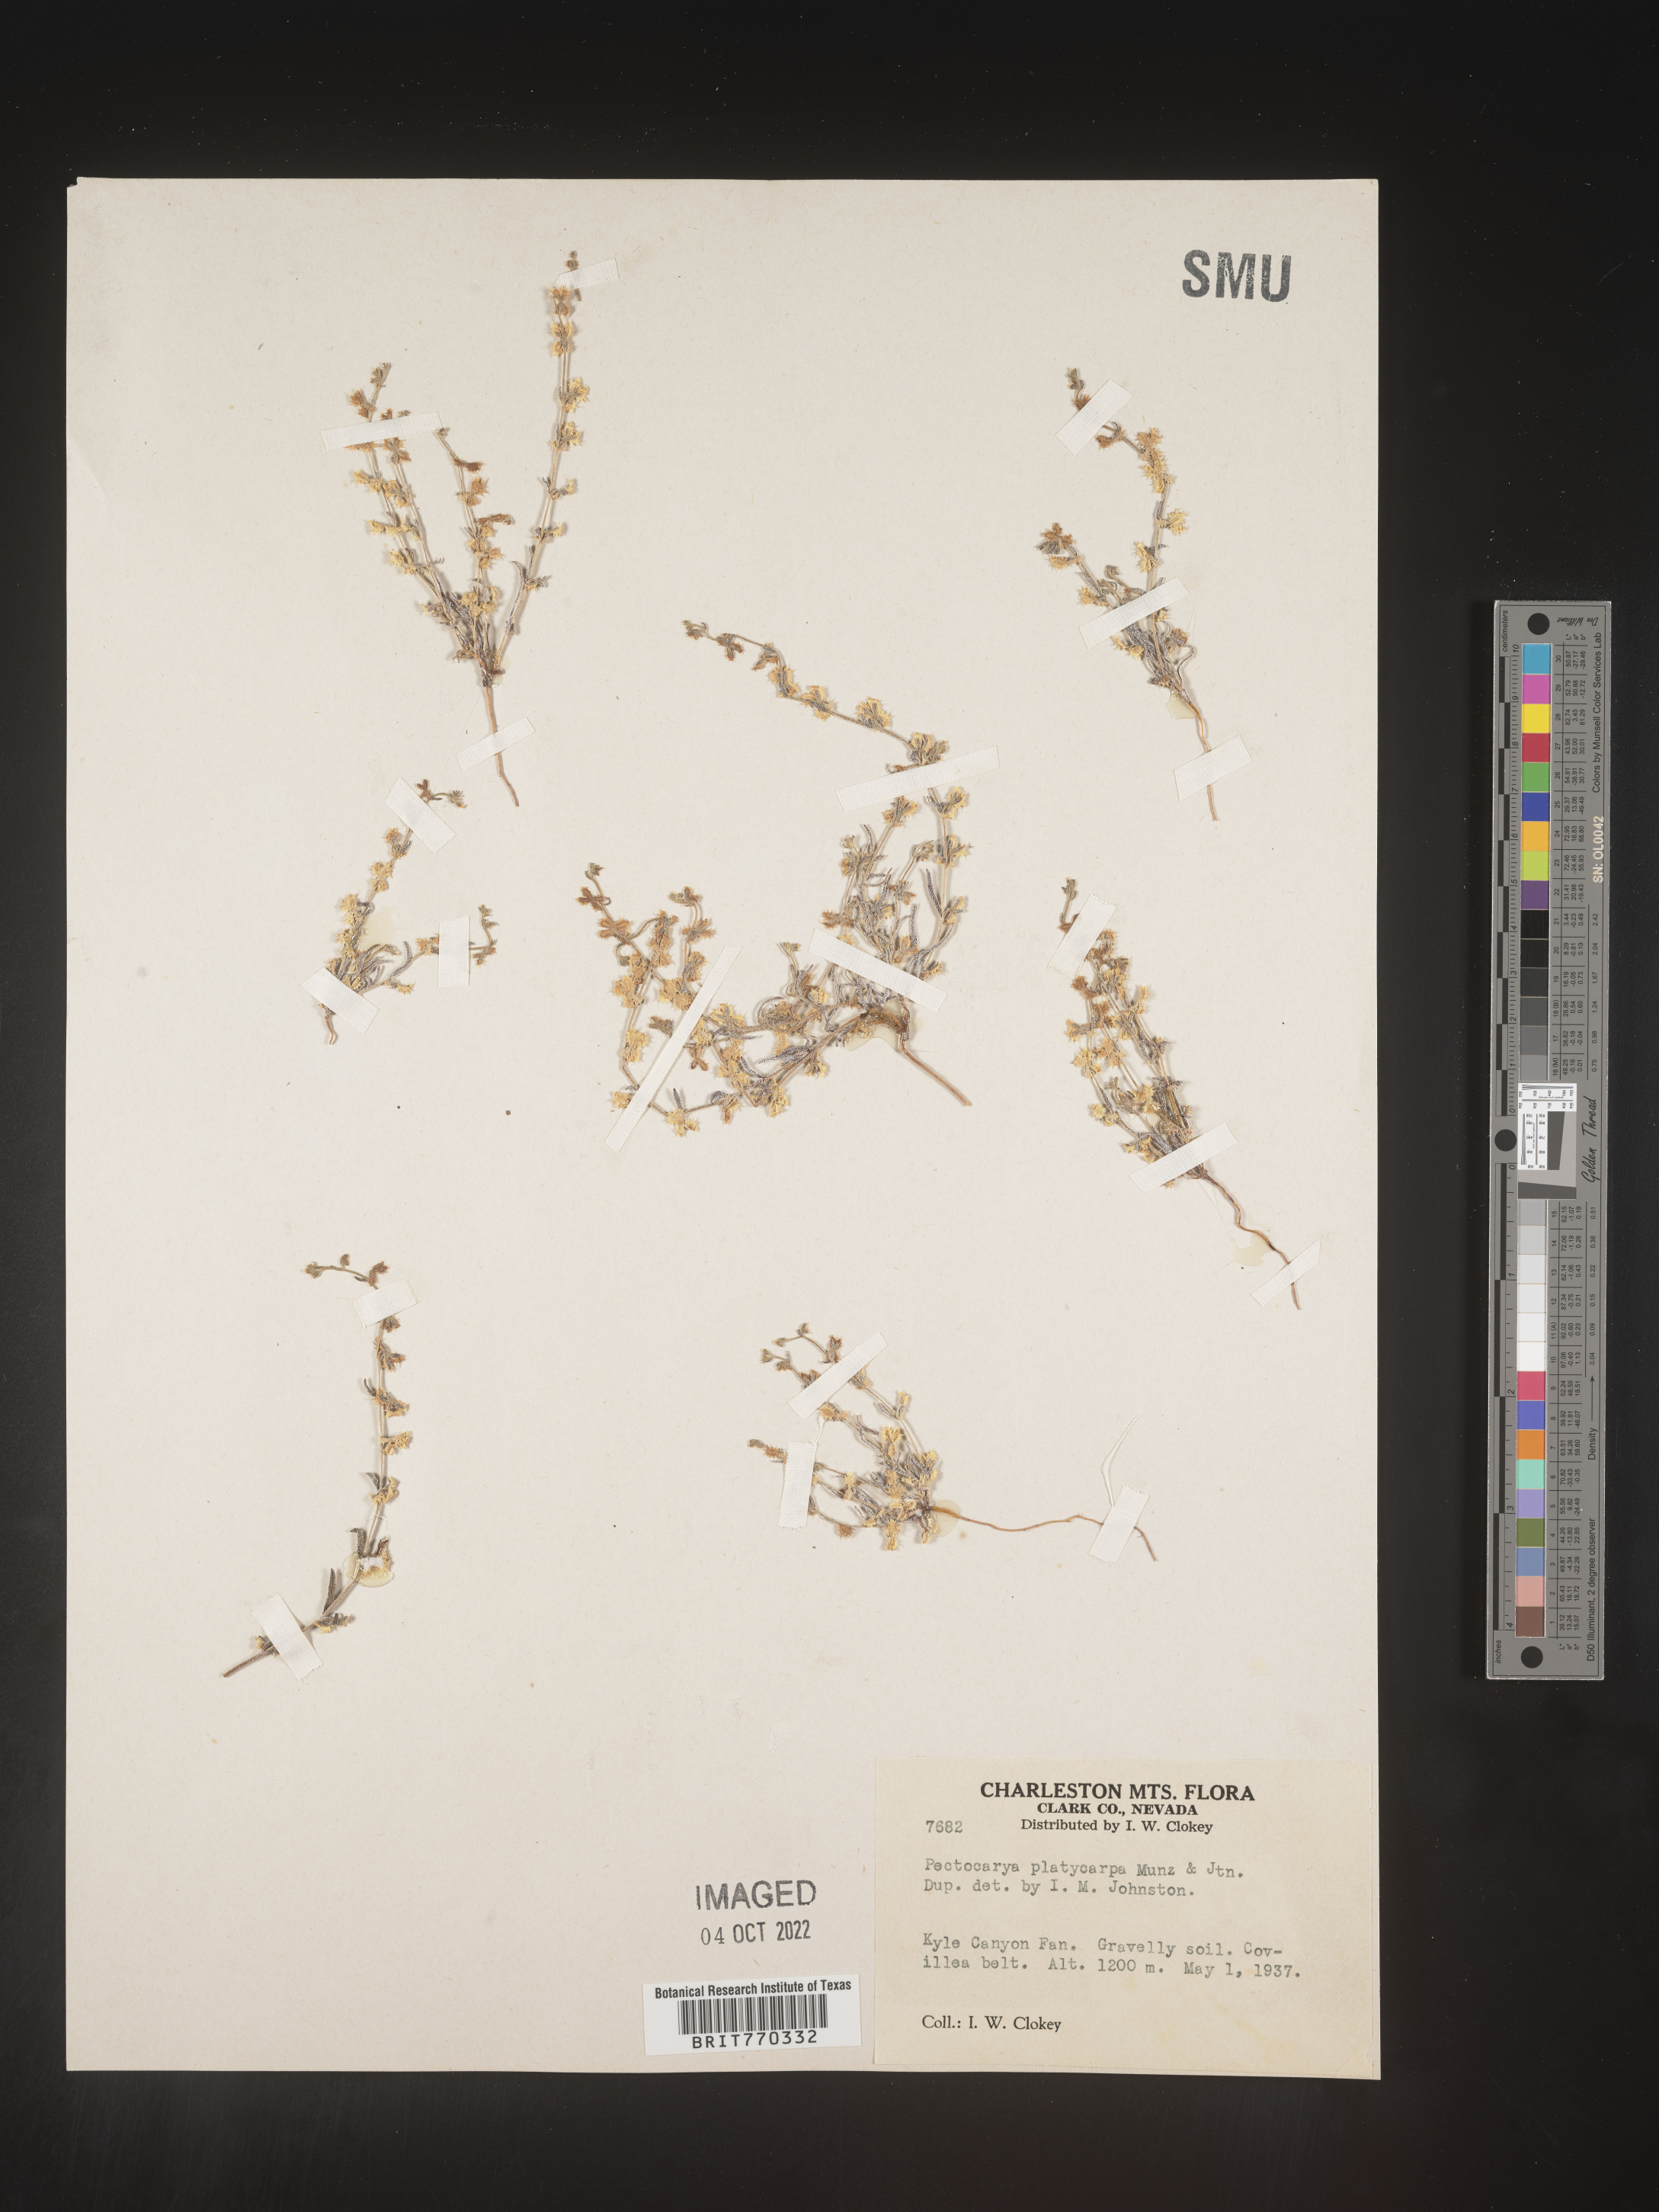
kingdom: Plantae
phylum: Tracheophyta
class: Magnoliopsida
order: Boraginales
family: Boraginaceae
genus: Pectocarya
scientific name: Pectocarya
